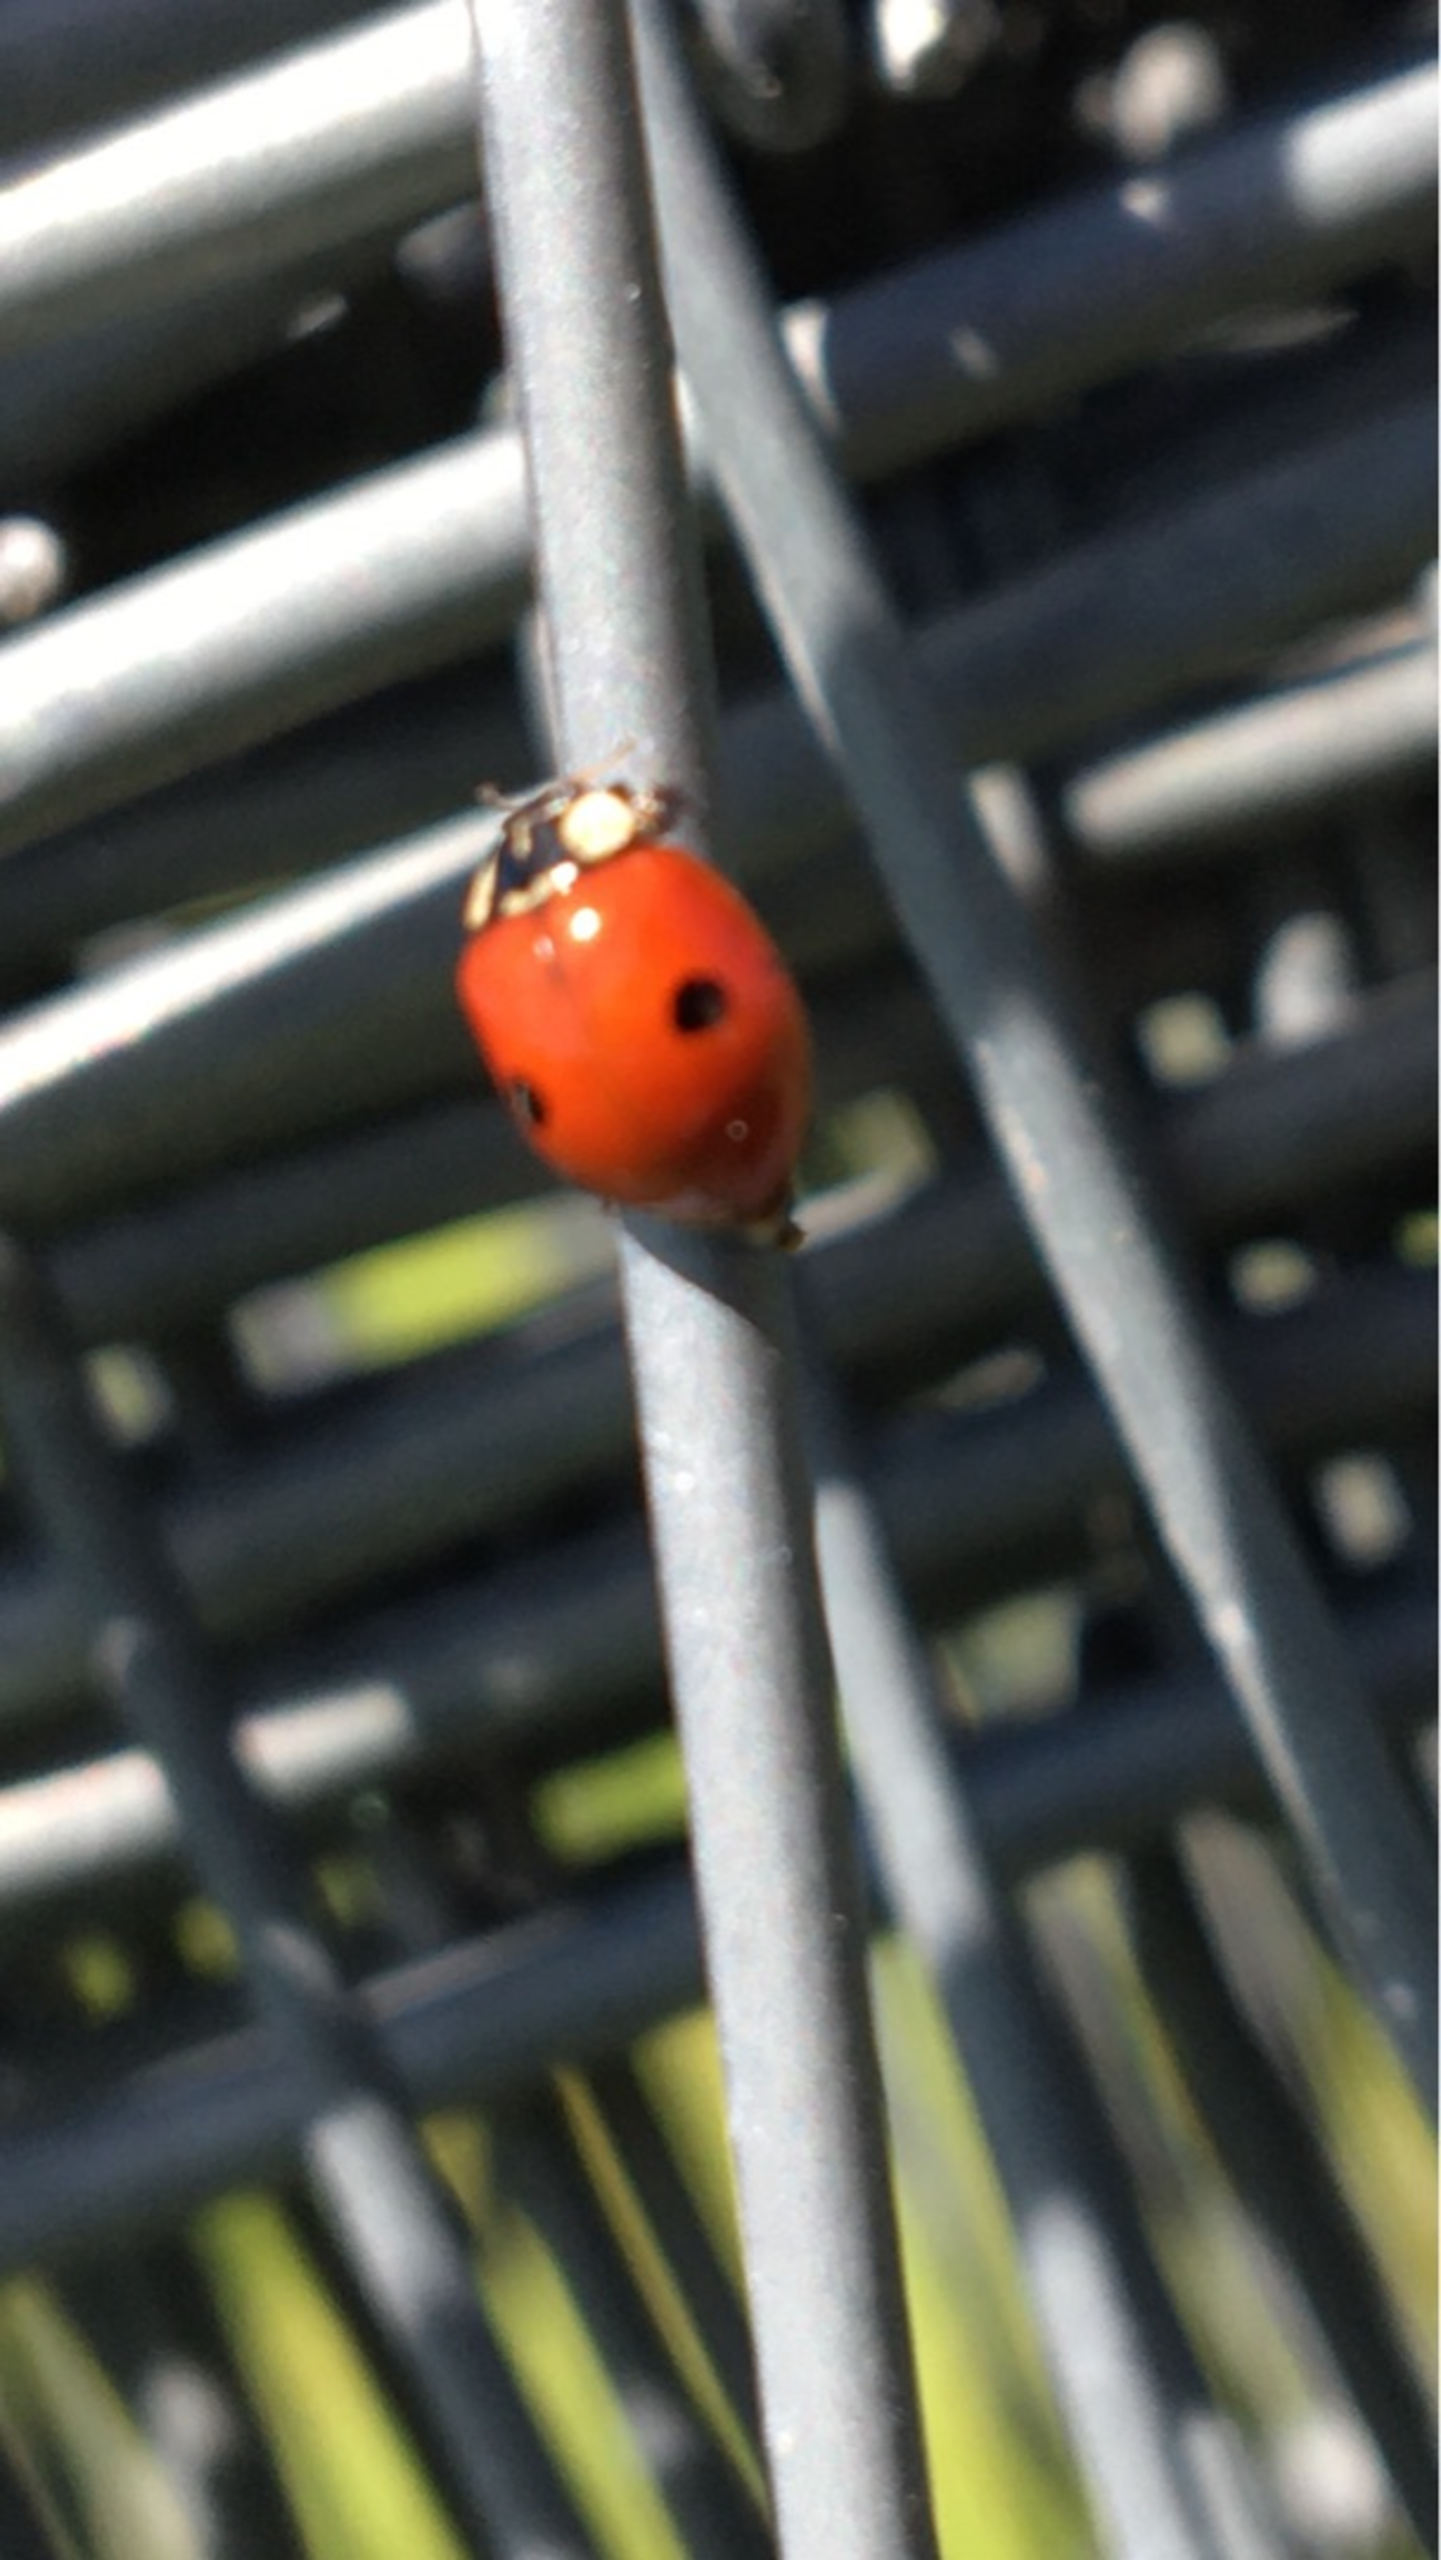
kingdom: Animalia
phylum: Arthropoda
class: Insecta
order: Coleoptera
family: Coccinellidae
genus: Adalia
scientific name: Adalia bipunctata
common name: Toplettet mariehøne
